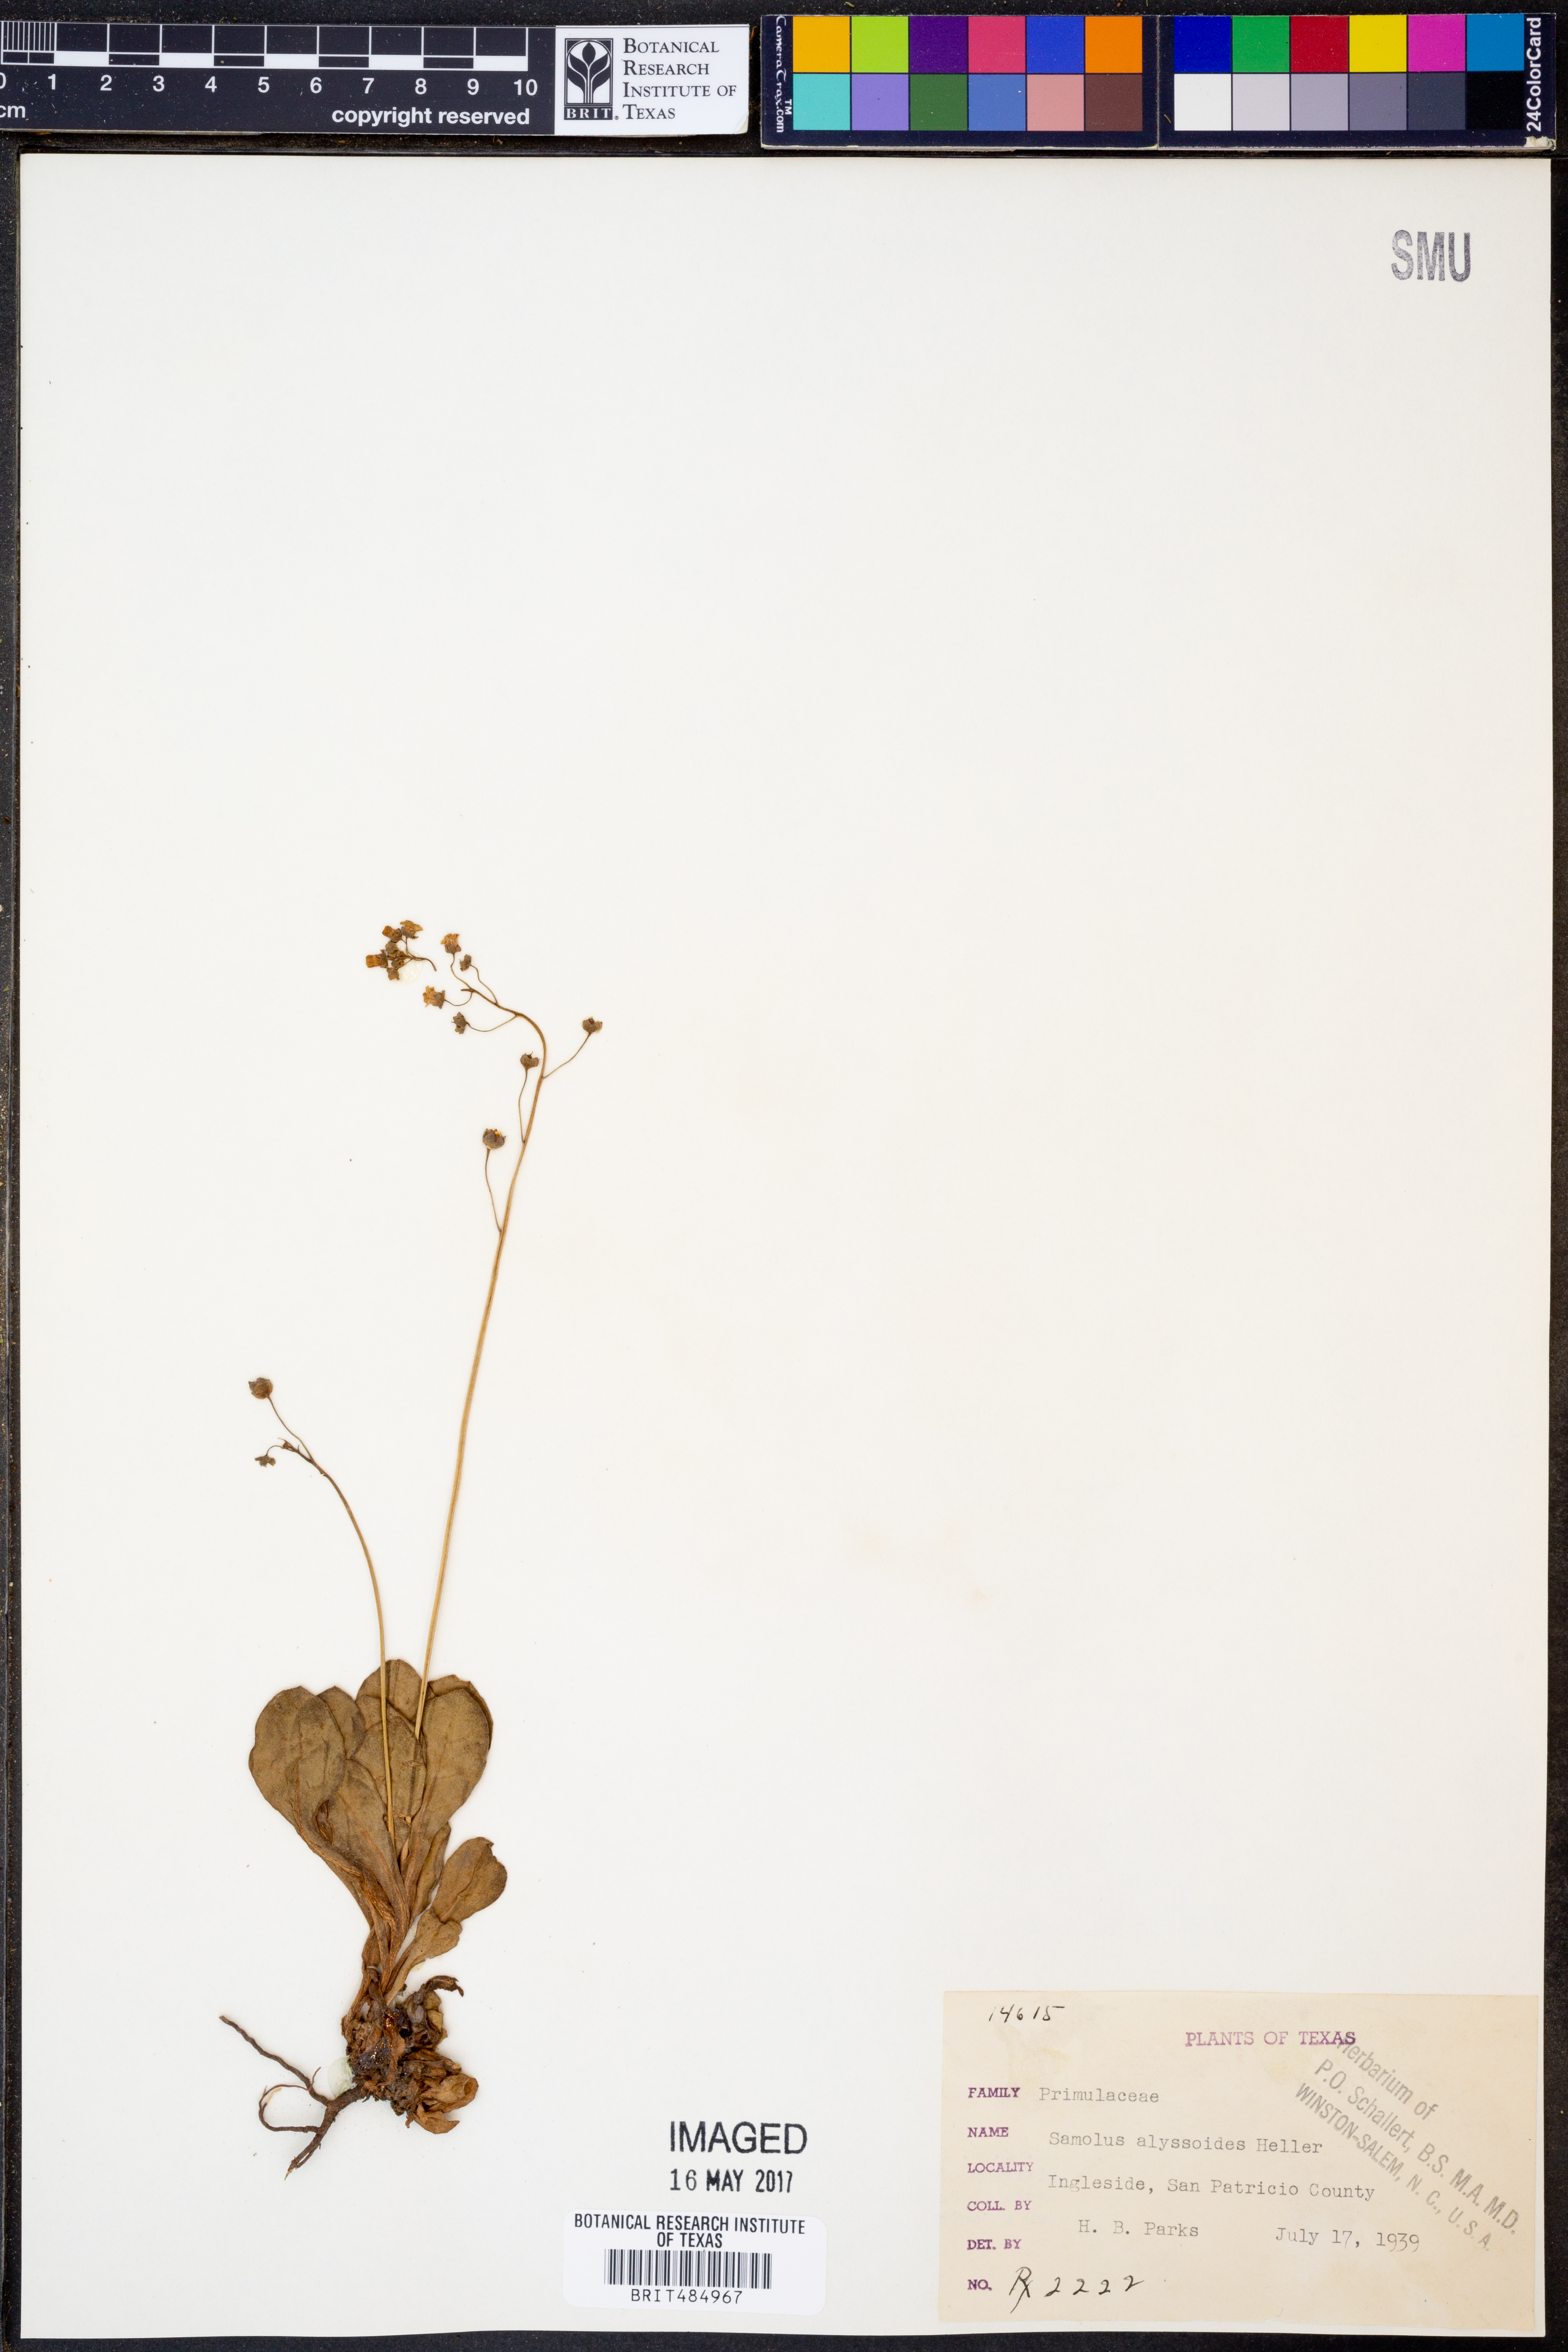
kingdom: Plantae
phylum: Tracheophyta
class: Magnoliopsida
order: Ericales
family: Primulaceae
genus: Samolus
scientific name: Samolus ebracteatus
